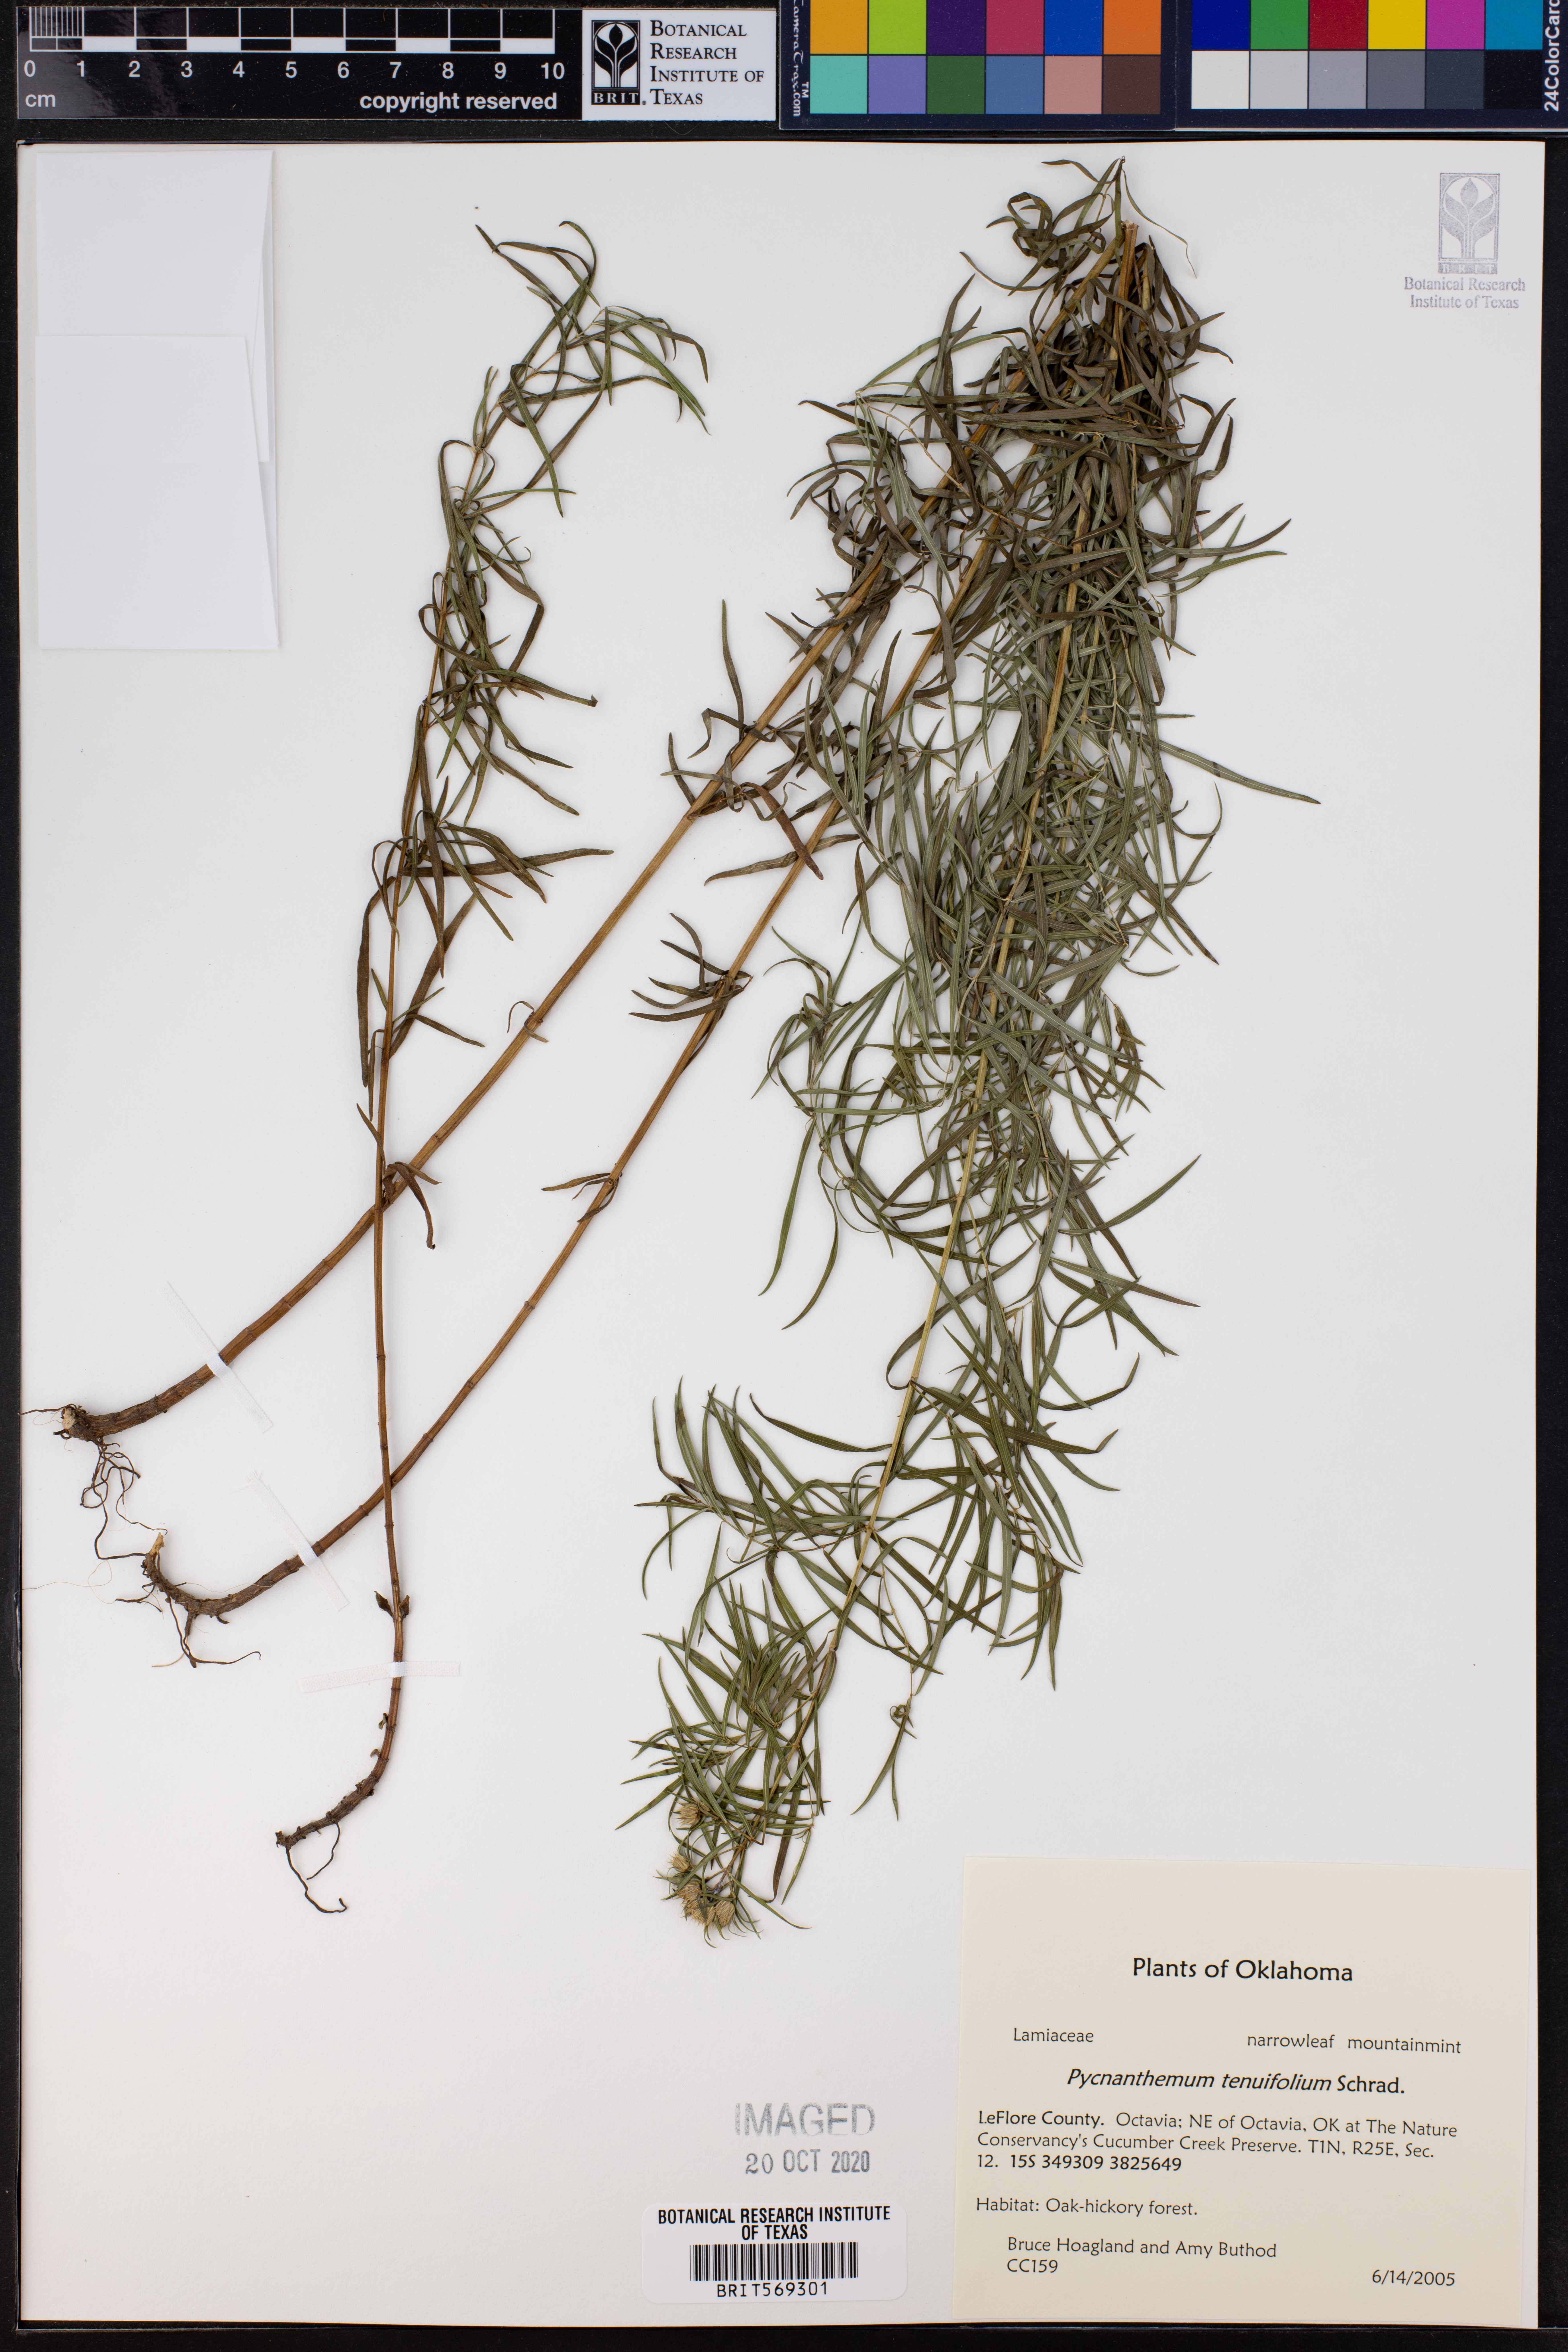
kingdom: Plantae
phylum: Tracheophyta
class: Magnoliopsida
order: Lamiales
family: Lamiaceae
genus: Pycnanthemum
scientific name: Pycnanthemum tenuifolium
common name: Narrow-leaf mountain-mint
